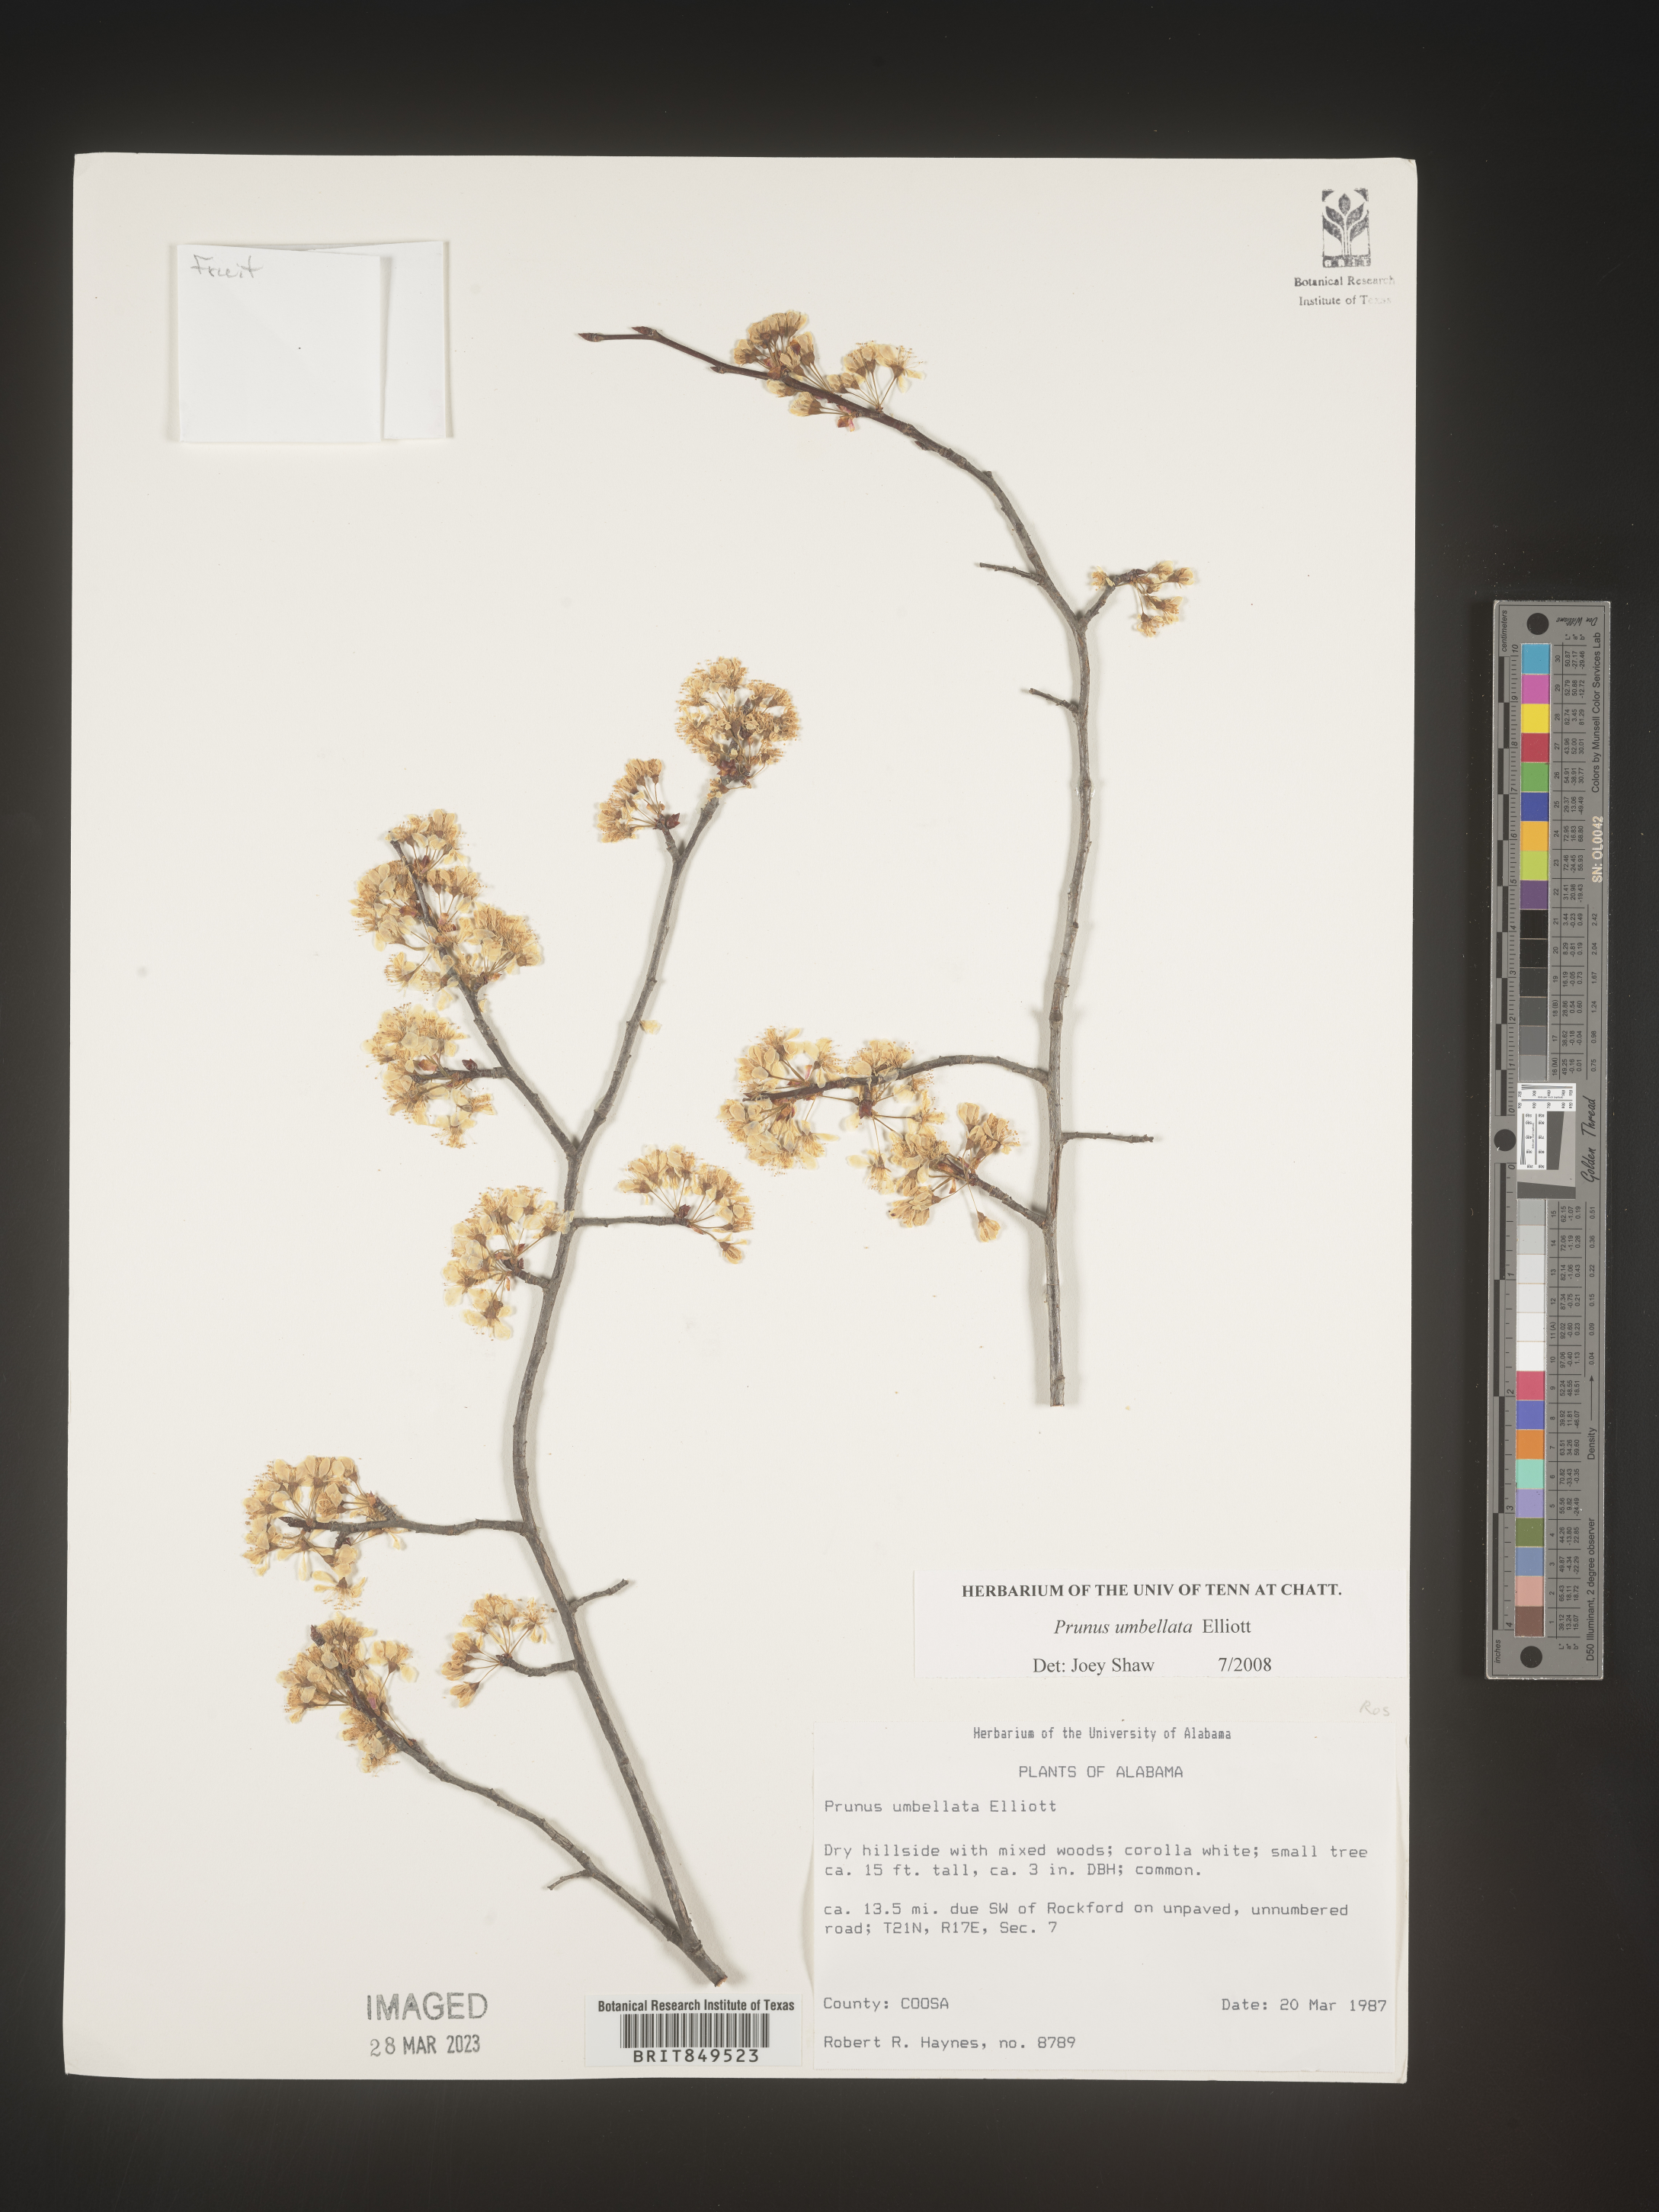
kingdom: Plantae
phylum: Tracheophyta
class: Magnoliopsida
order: Rosales
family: Rosaceae
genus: Prunus
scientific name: Prunus umbellata
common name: Allegheny plum
